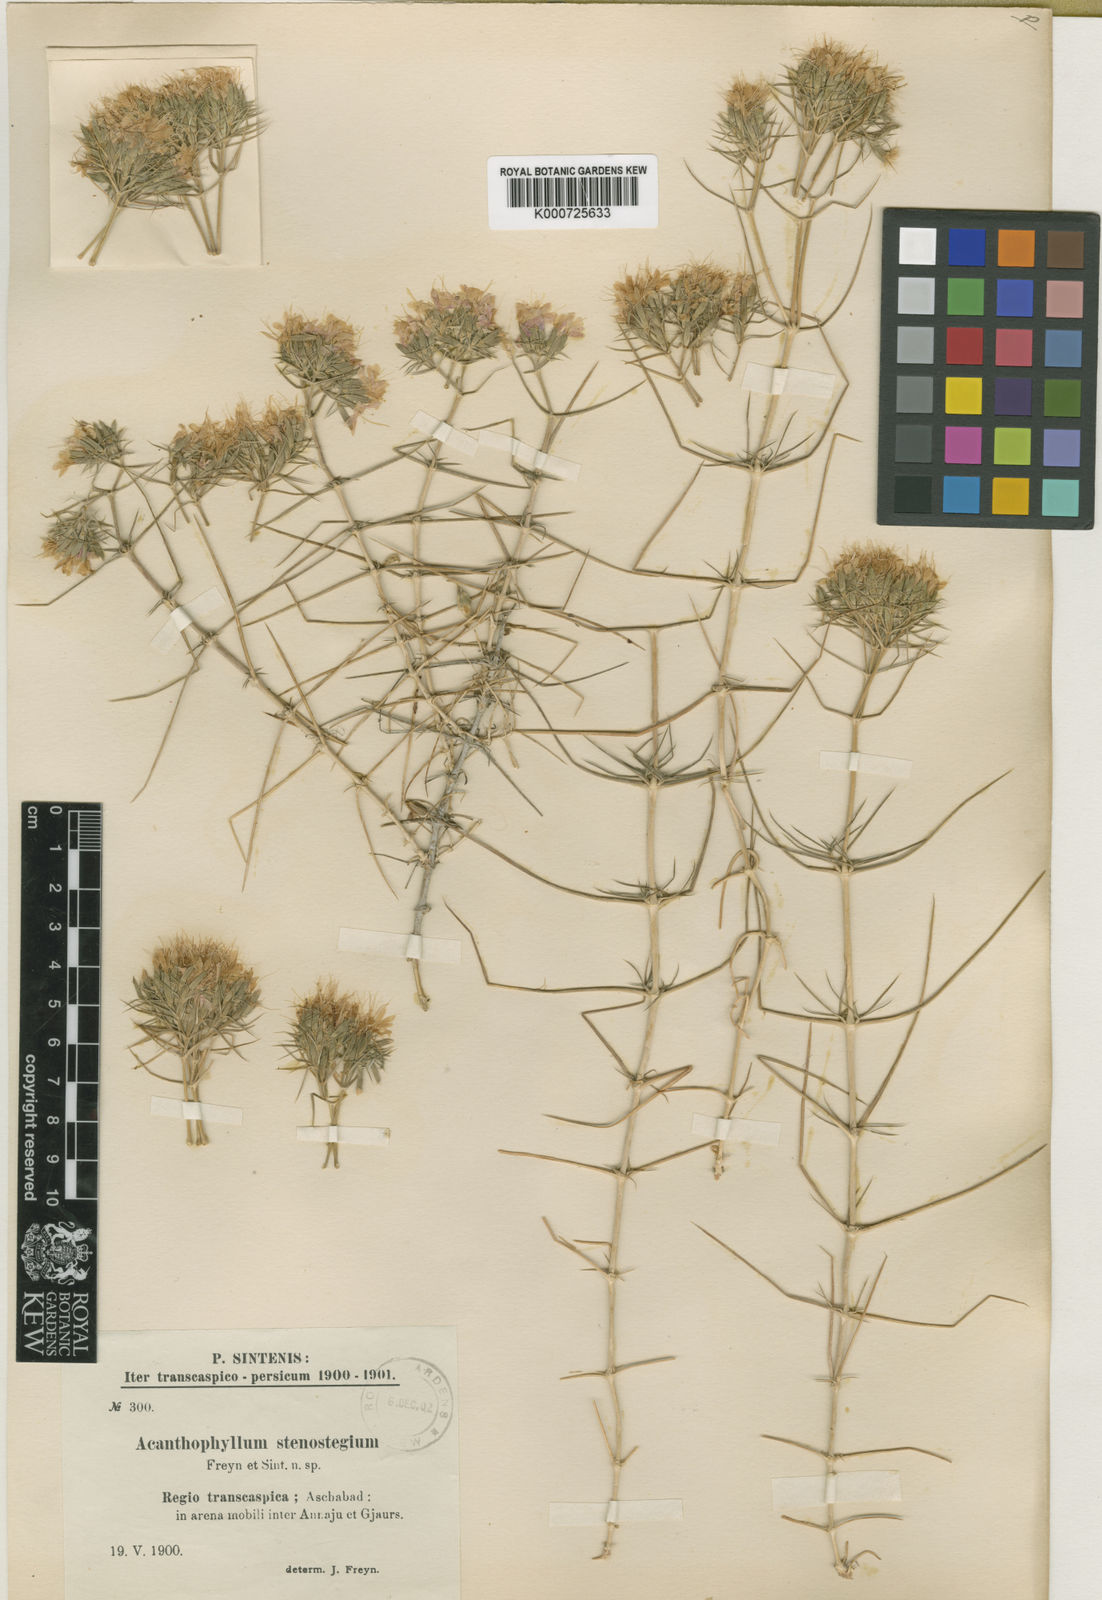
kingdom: Plantae
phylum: Tracheophyta
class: Magnoliopsida
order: Caryophyllales
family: Caryophyllaceae
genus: Acanthophyllum
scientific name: Acanthophyllum stenostegium
